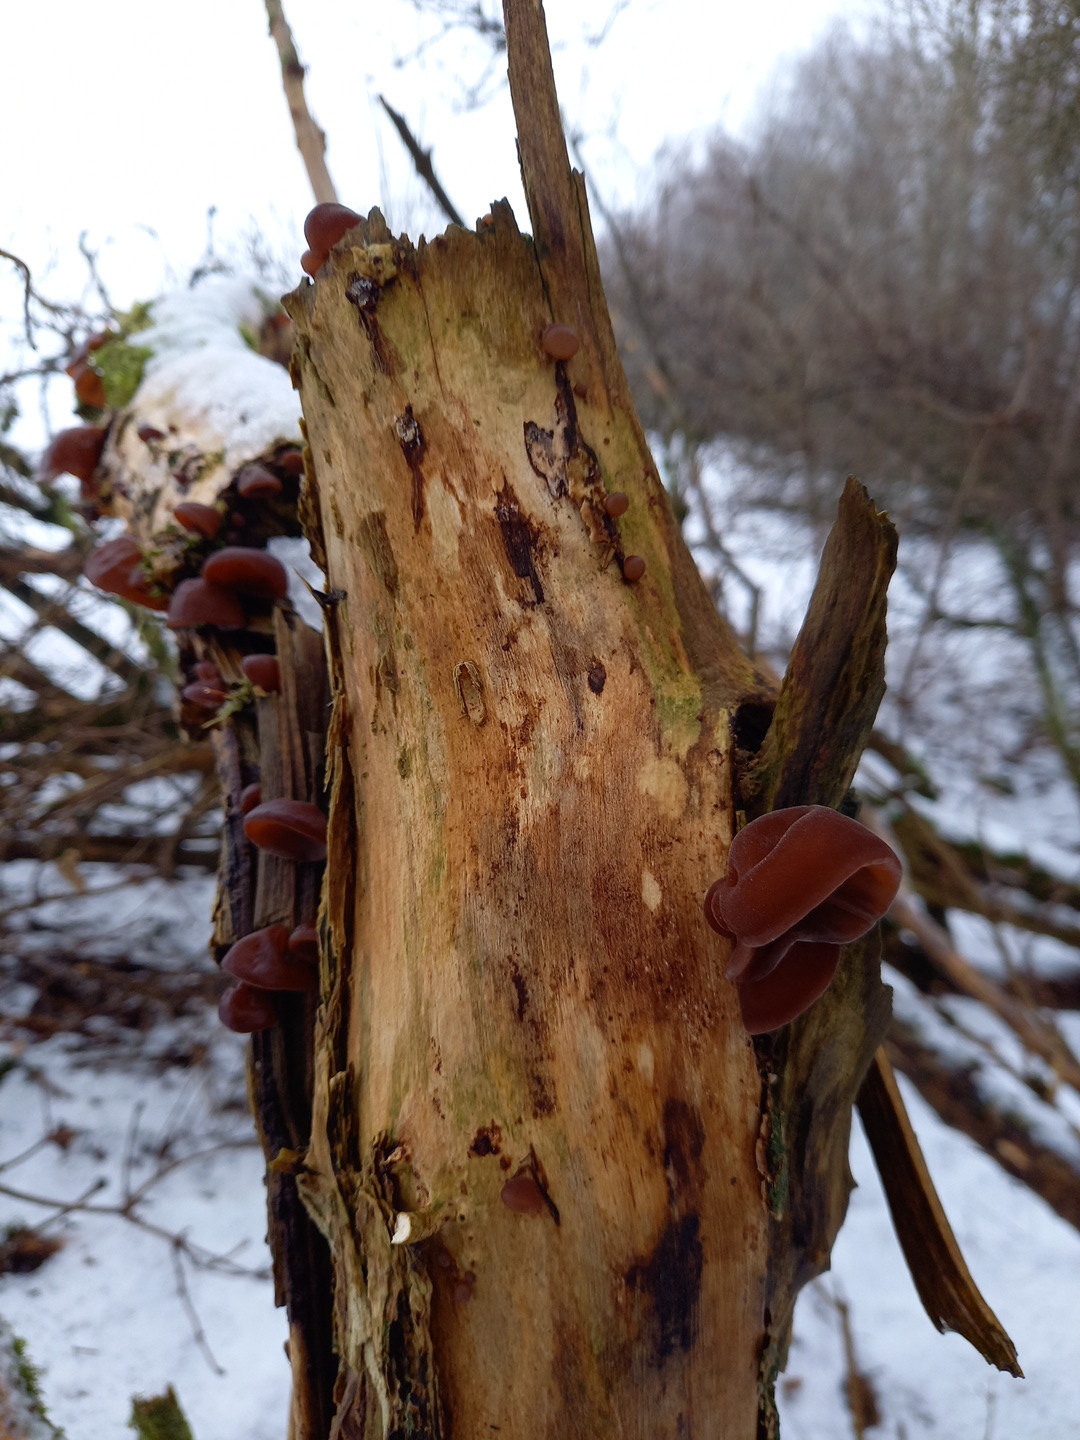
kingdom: Fungi
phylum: Basidiomycota
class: Agaricomycetes
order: Auriculariales
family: Auriculariaceae
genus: Auricularia
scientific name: Auricularia auricula-judae
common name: almindelig judasøre
